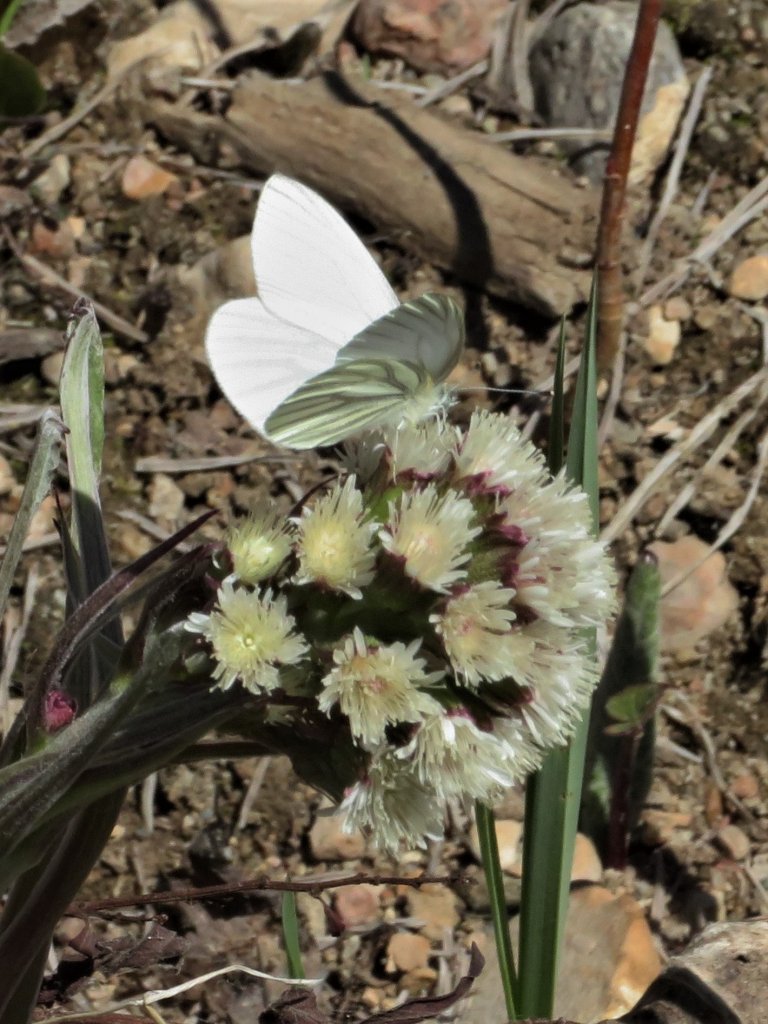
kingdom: Animalia
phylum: Arthropoda
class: Insecta
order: Lepidoptera
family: Pieridae
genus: Pieris
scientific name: Pieris oleracea
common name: Mustard White
